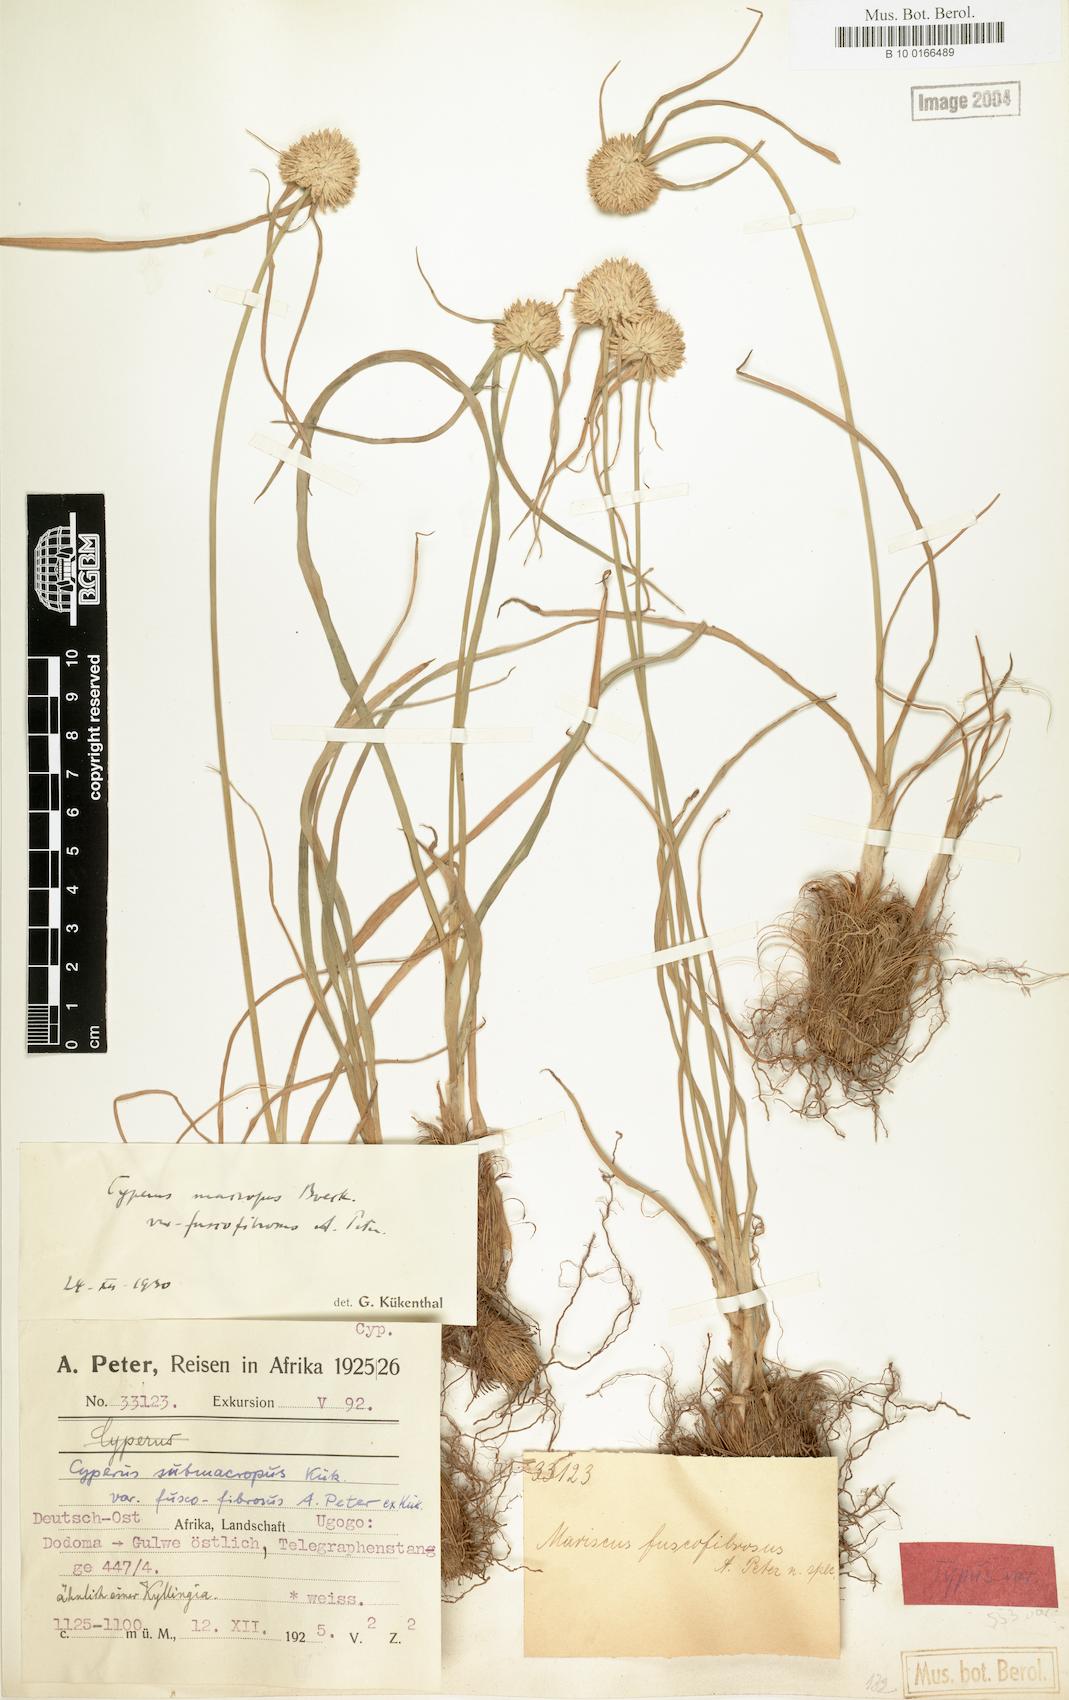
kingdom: Plantae
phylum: Tracheophyta
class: Liliopsida
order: Poales
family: Cyperaceae
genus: Cyperus
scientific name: Cyperus mollipes
